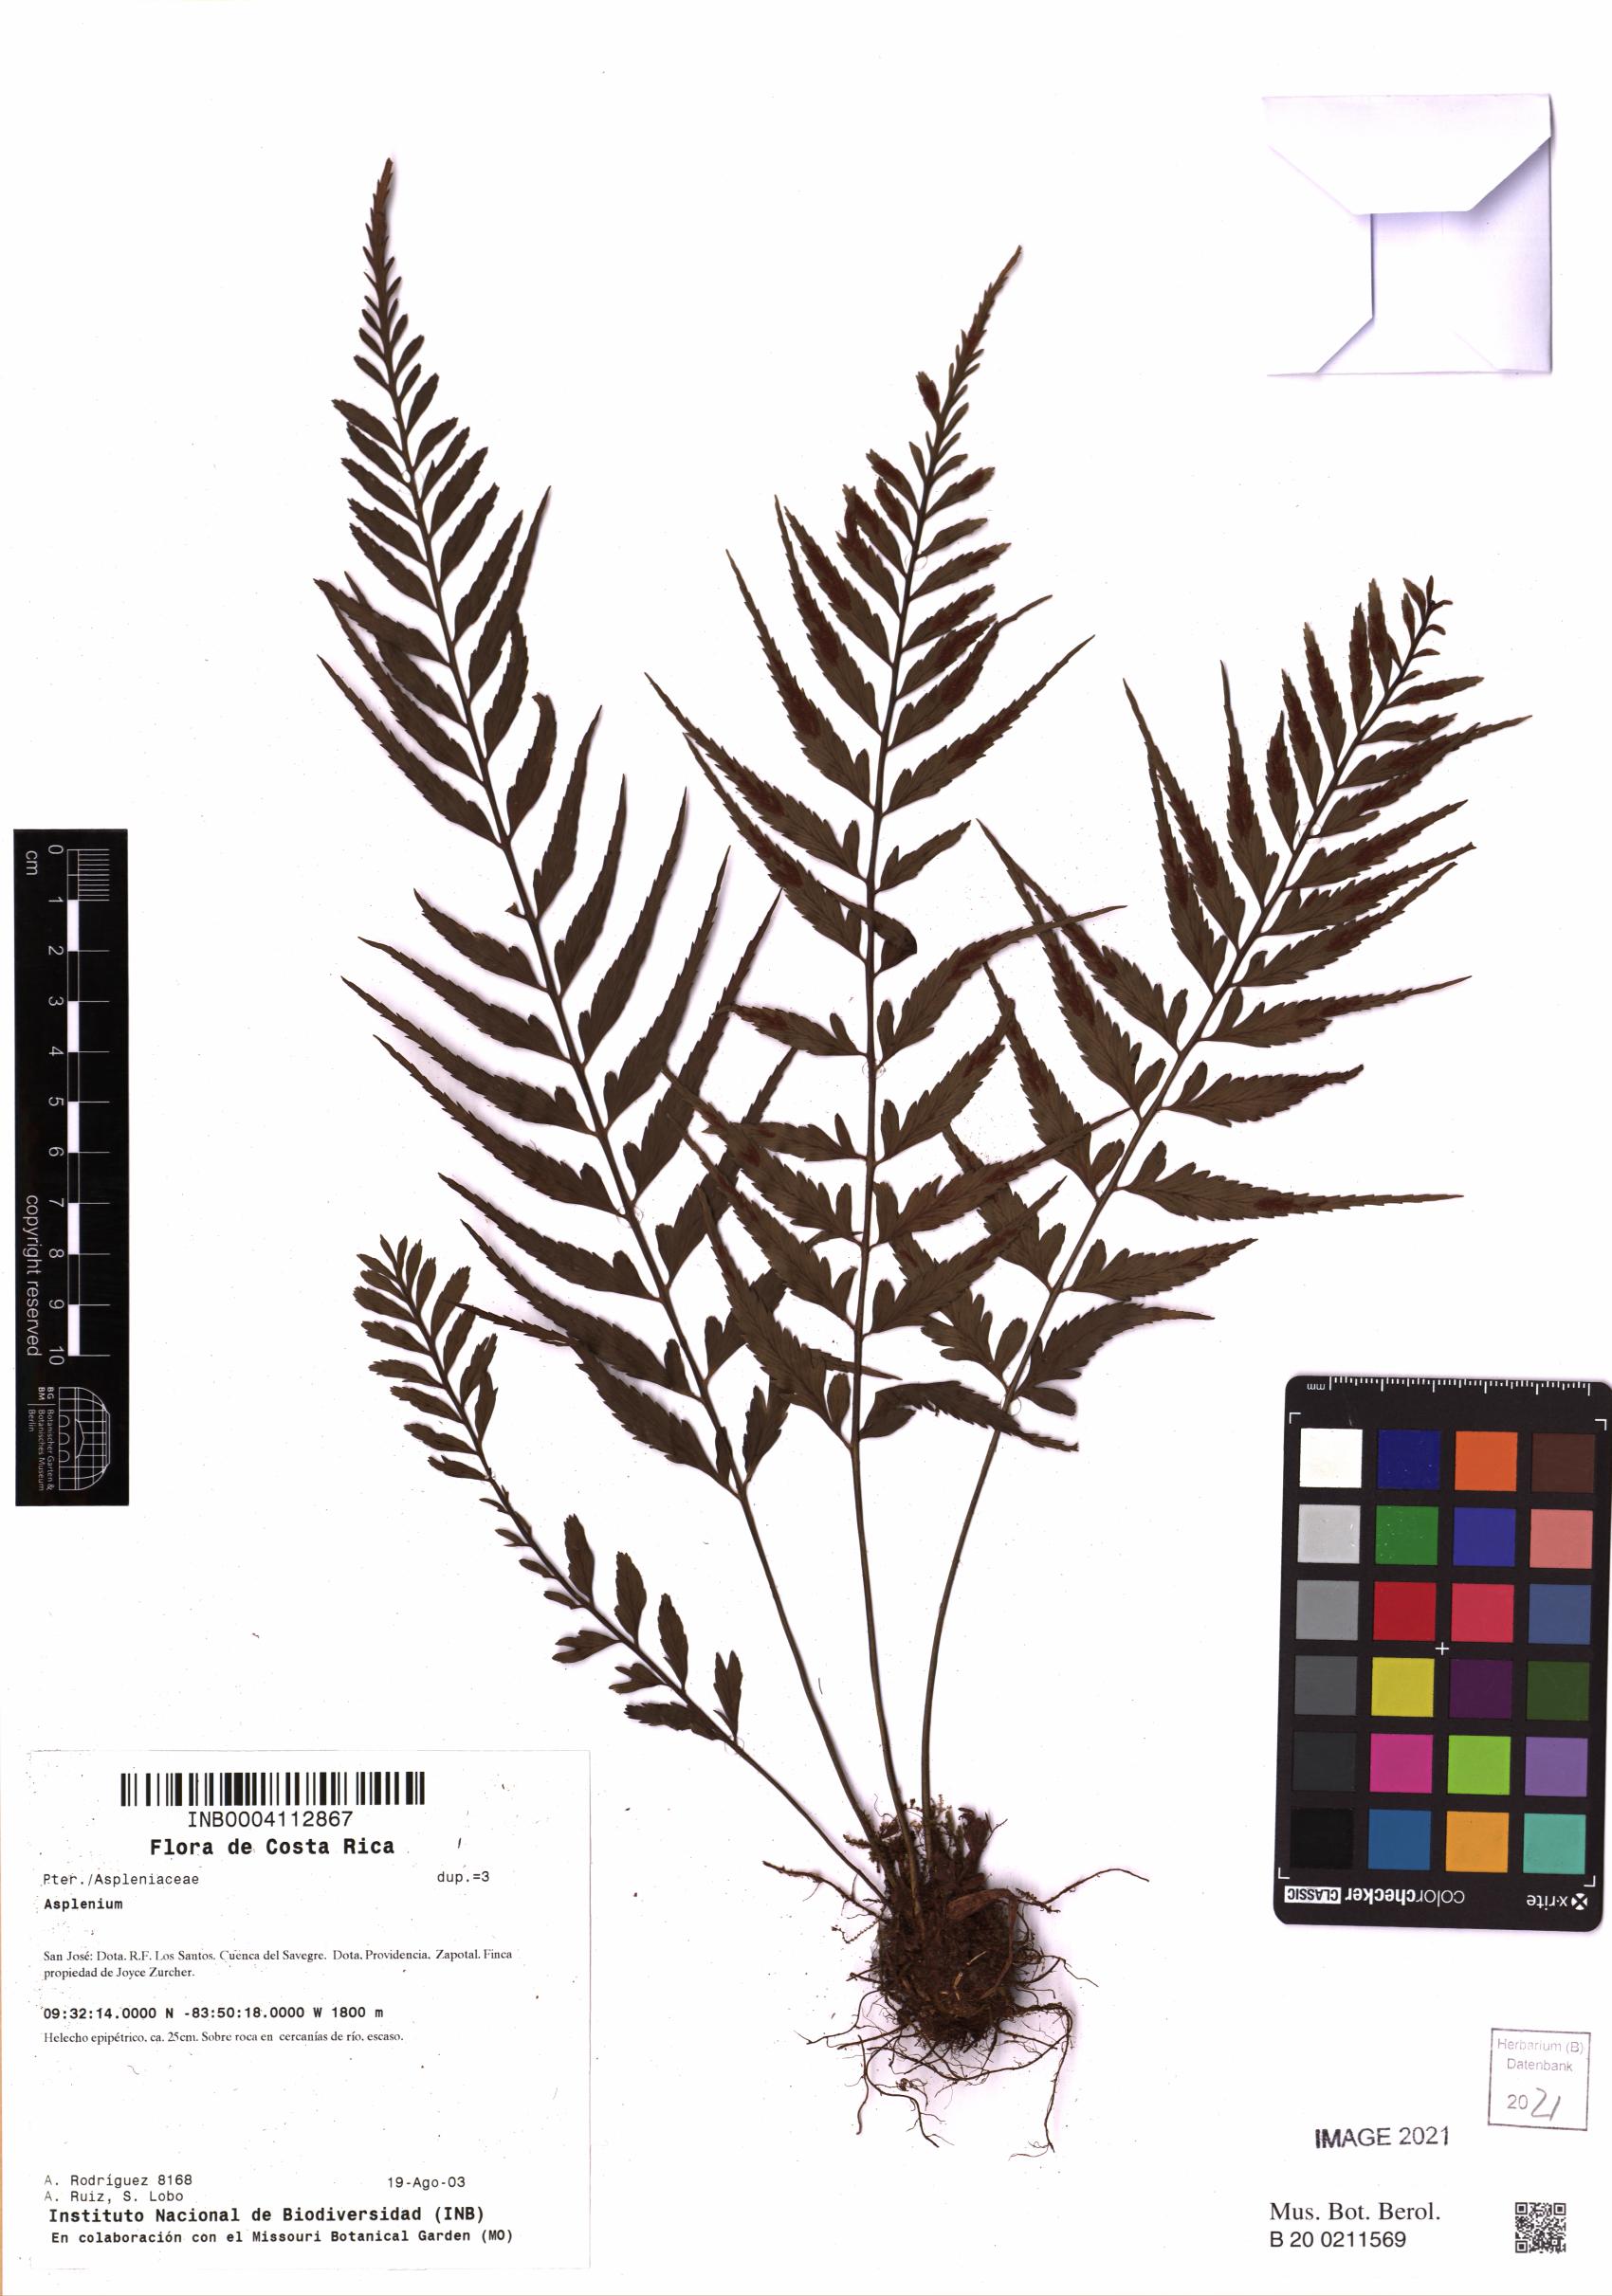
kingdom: Plantae
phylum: Tracheophyta
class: Polypodiopsida
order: Polypodiales
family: Aspleniaceae
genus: Asplenium
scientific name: Asplenium
